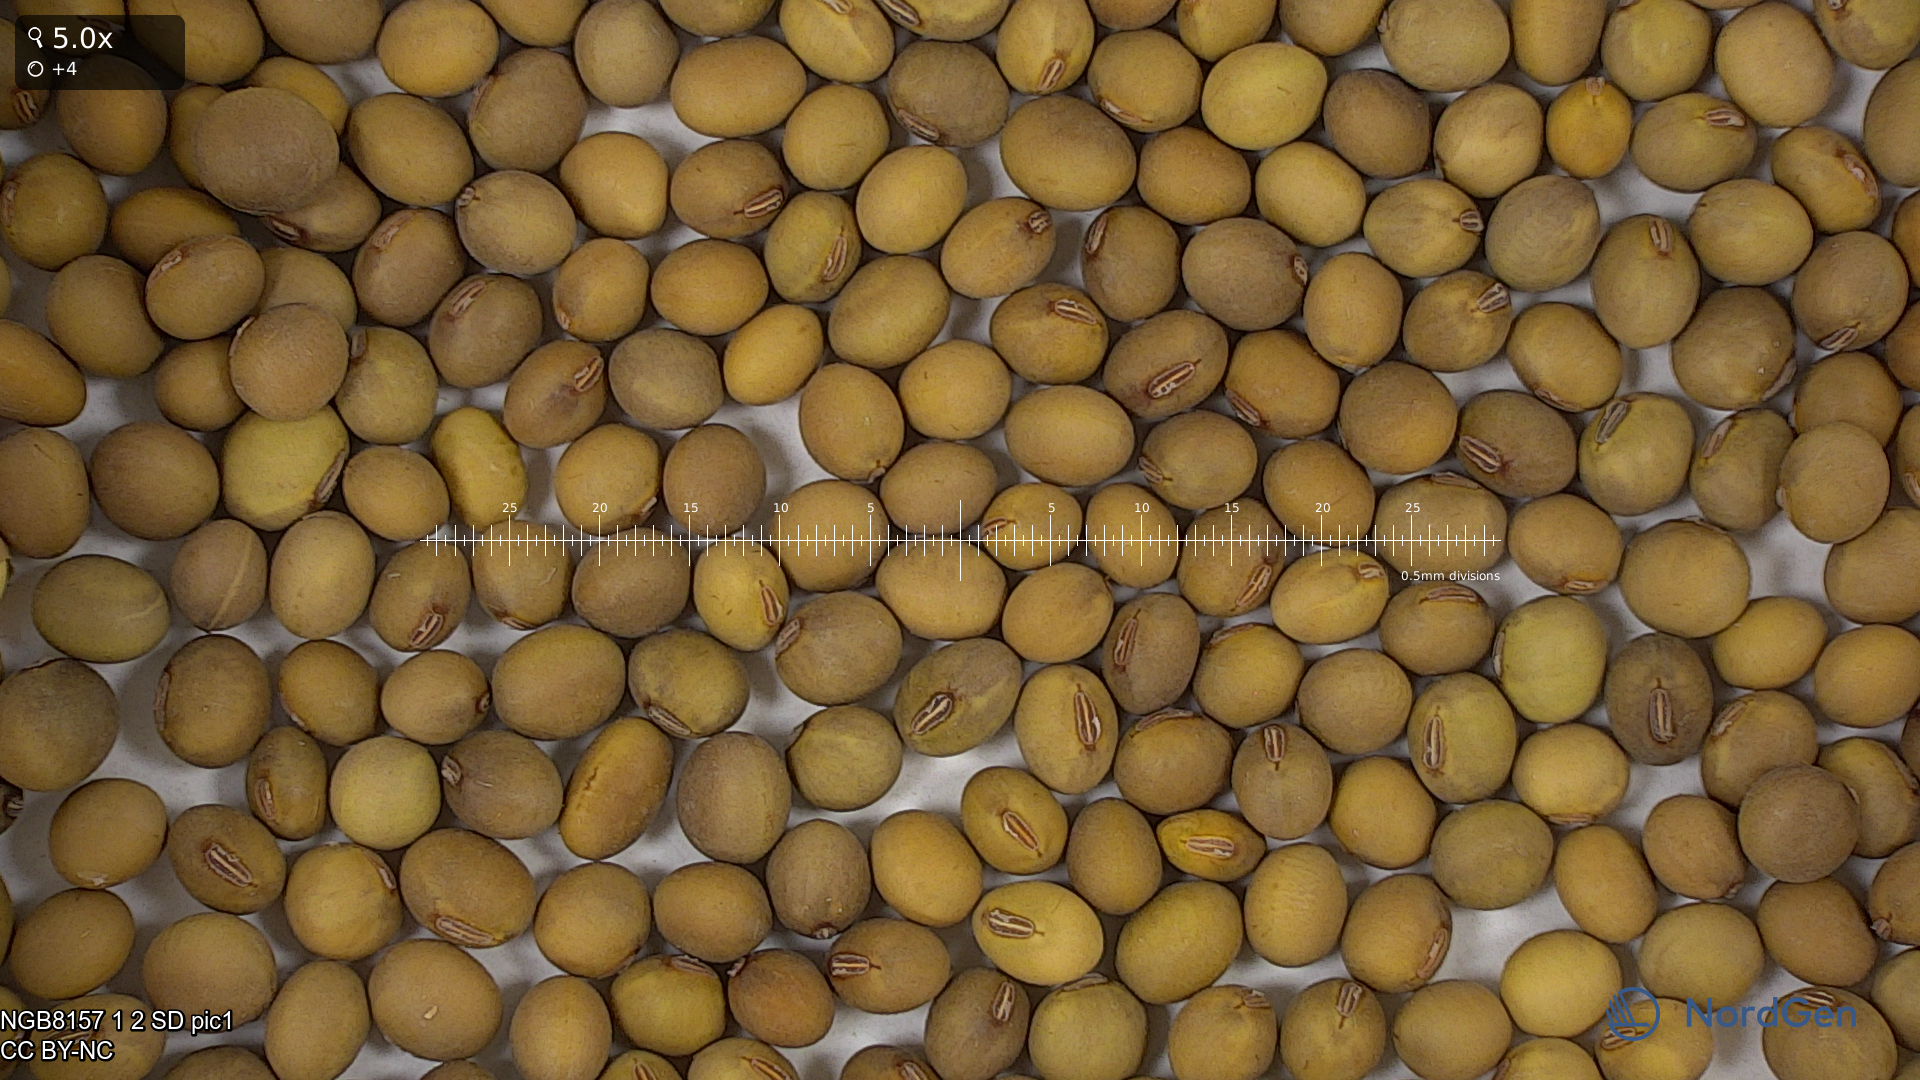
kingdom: Plantae
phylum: Tracheophyta
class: Magnoliopsida
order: Fabales
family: Fabaceae
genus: Glycine
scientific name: Glycine max
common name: Soya-bean
